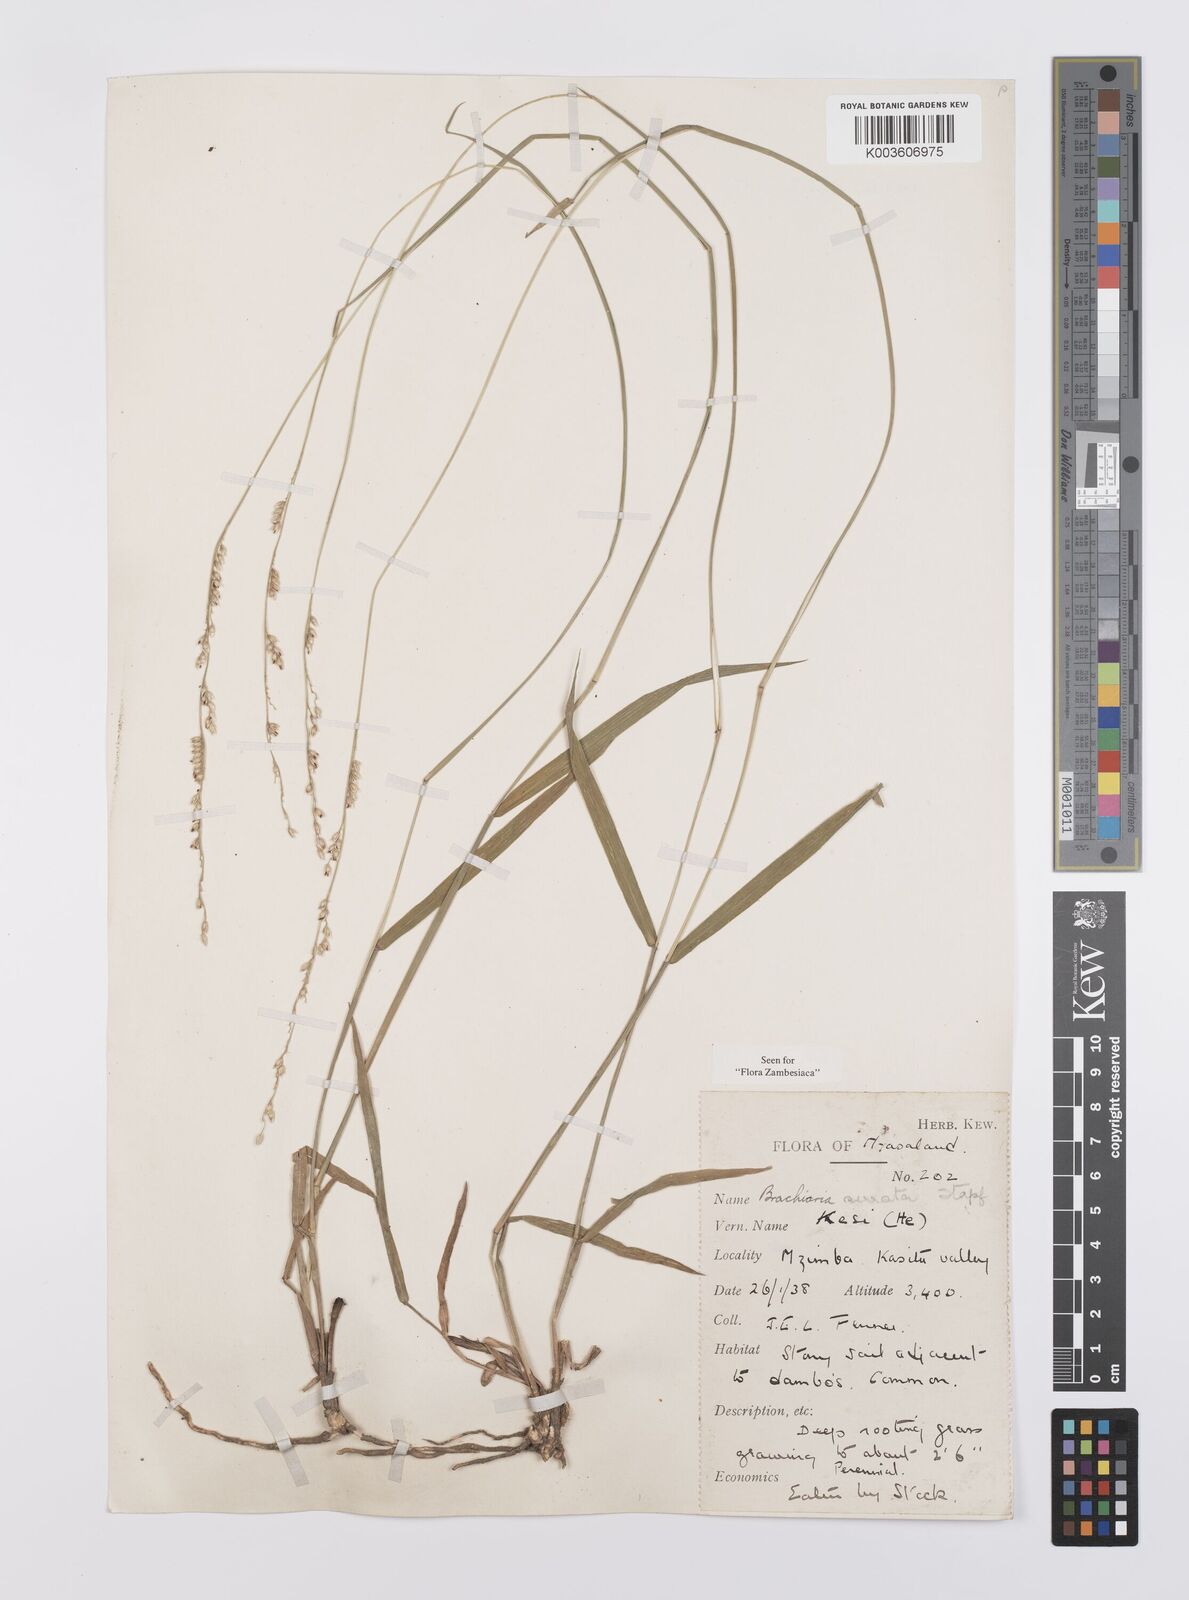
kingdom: Plantae
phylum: Tracheophyta
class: Liliopsida
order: Poales
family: Poaceae
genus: Urochloa
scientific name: Urochloa serrata
